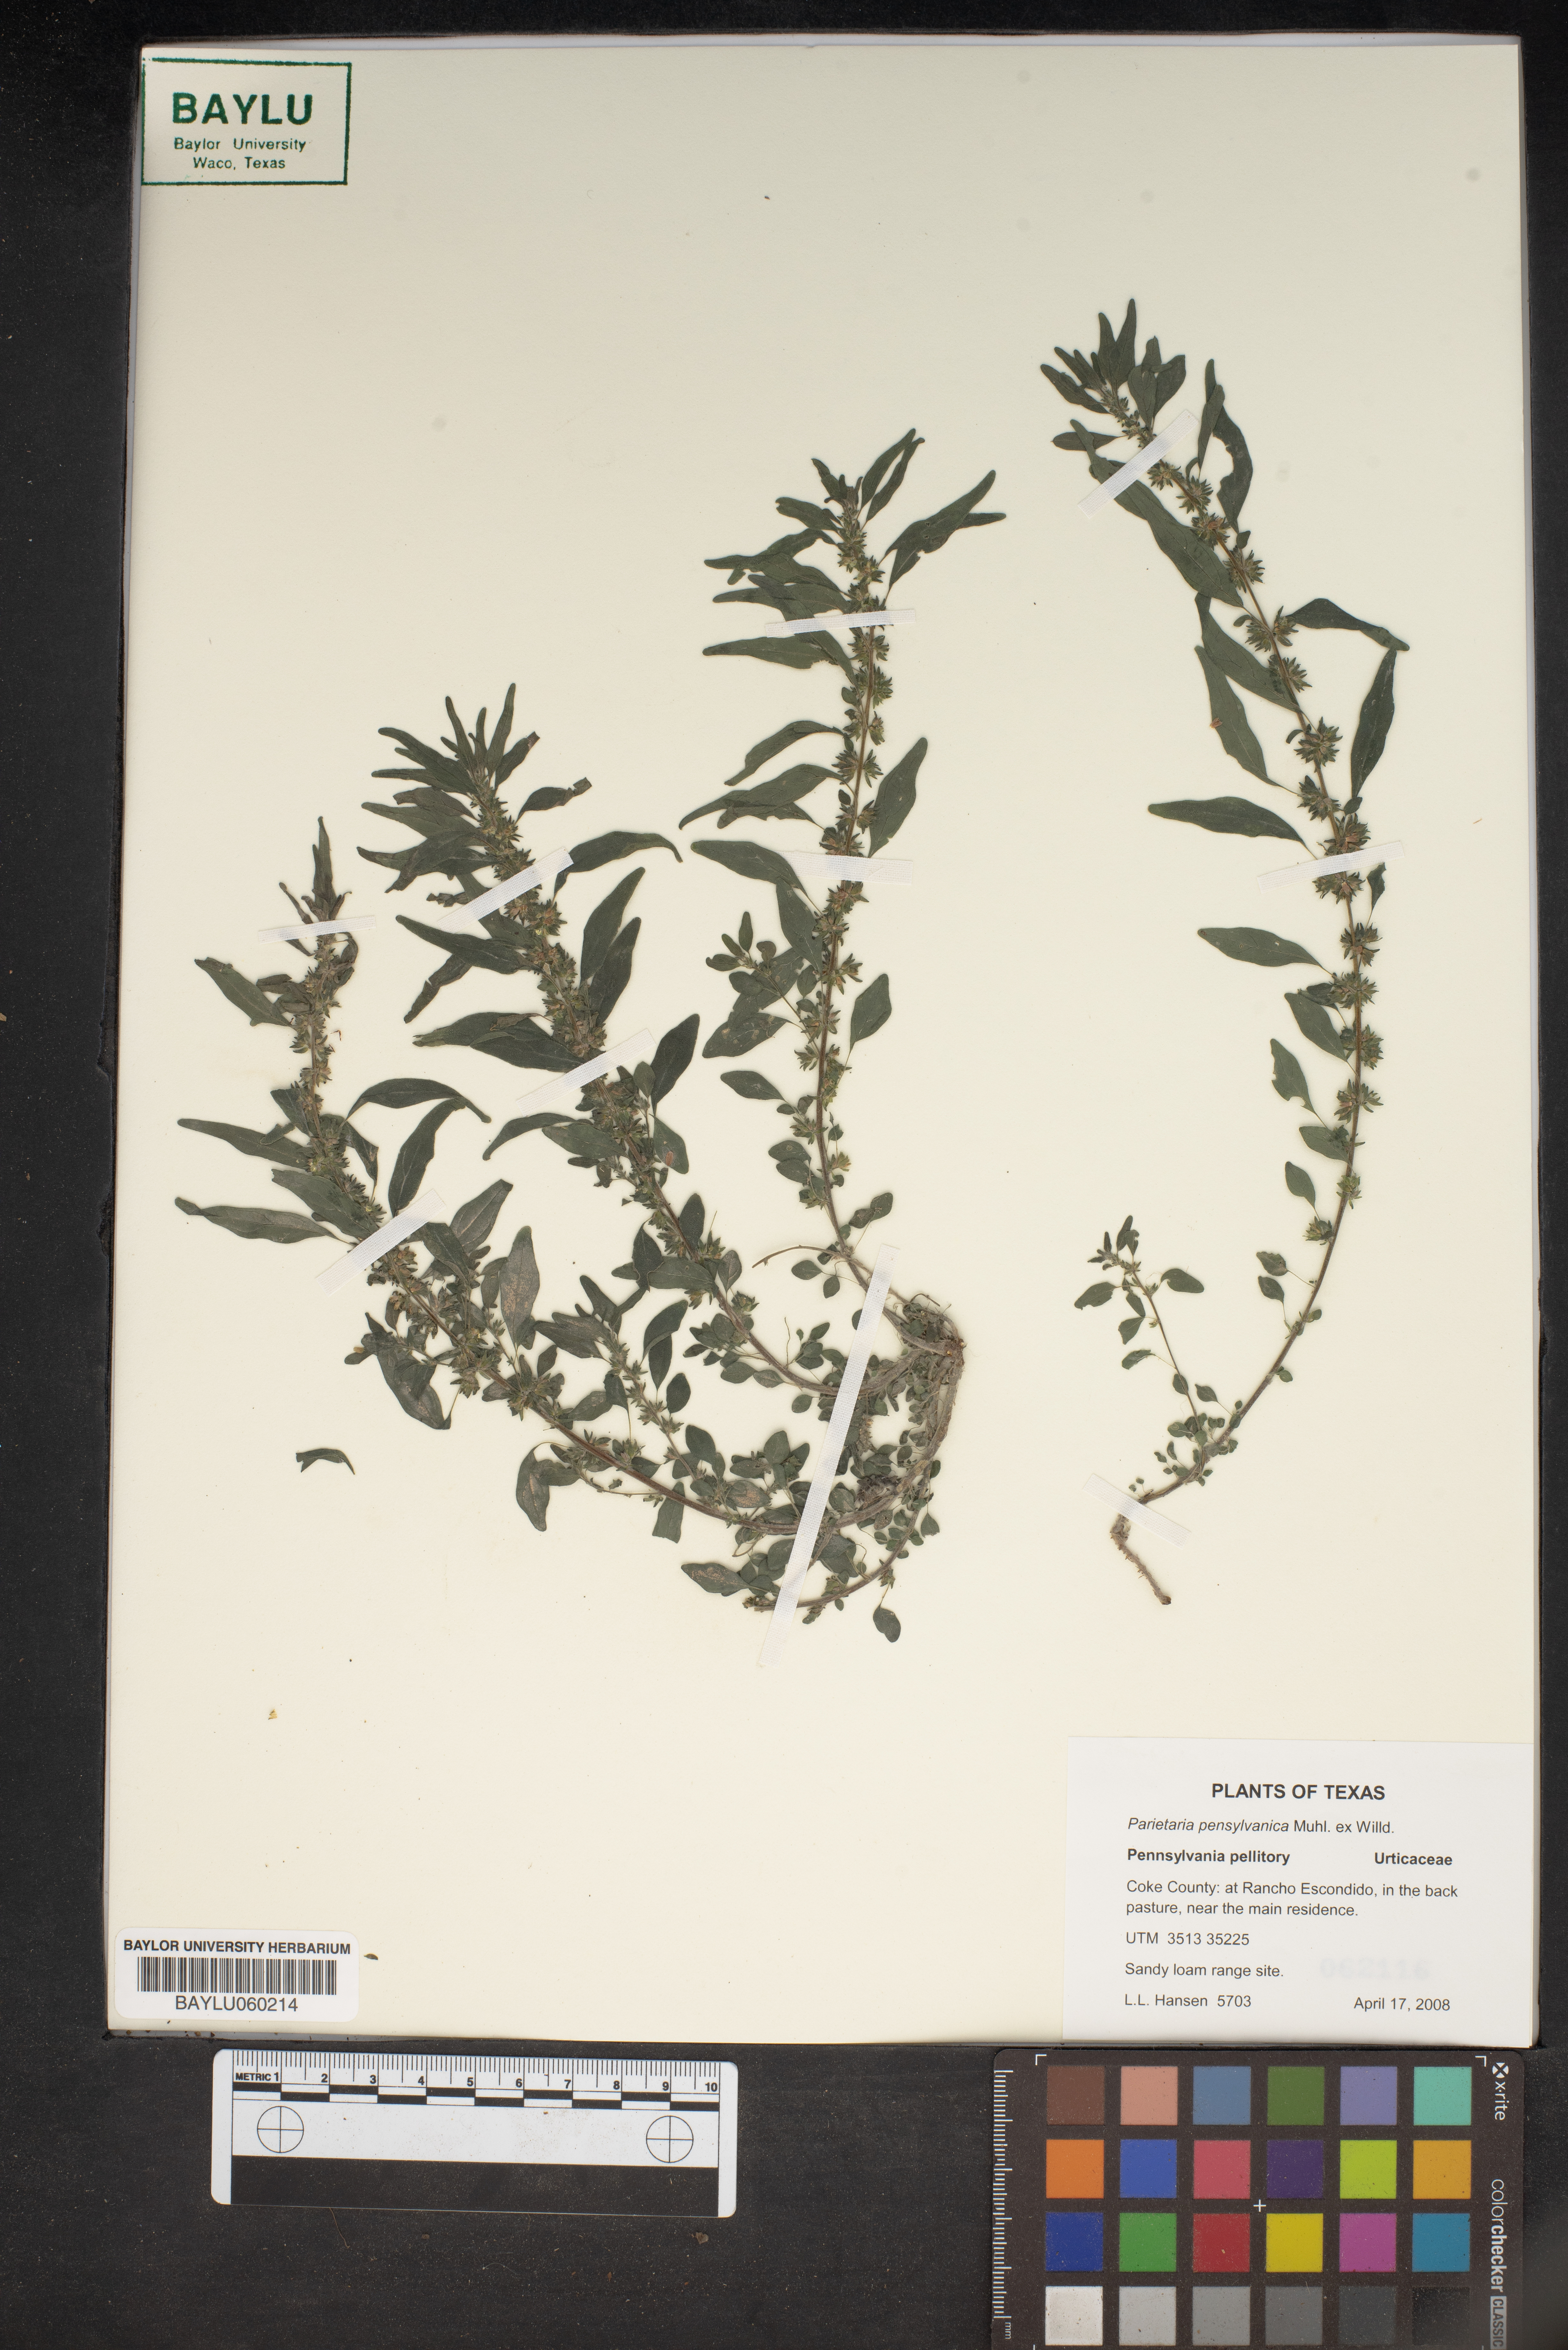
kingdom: Plantae
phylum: Tracheophyta
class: Magnoliopsida
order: Rosales
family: Urticaceae
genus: Parietaria
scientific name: Parietaria pensylvanica
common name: Pennsylvania pellitory
